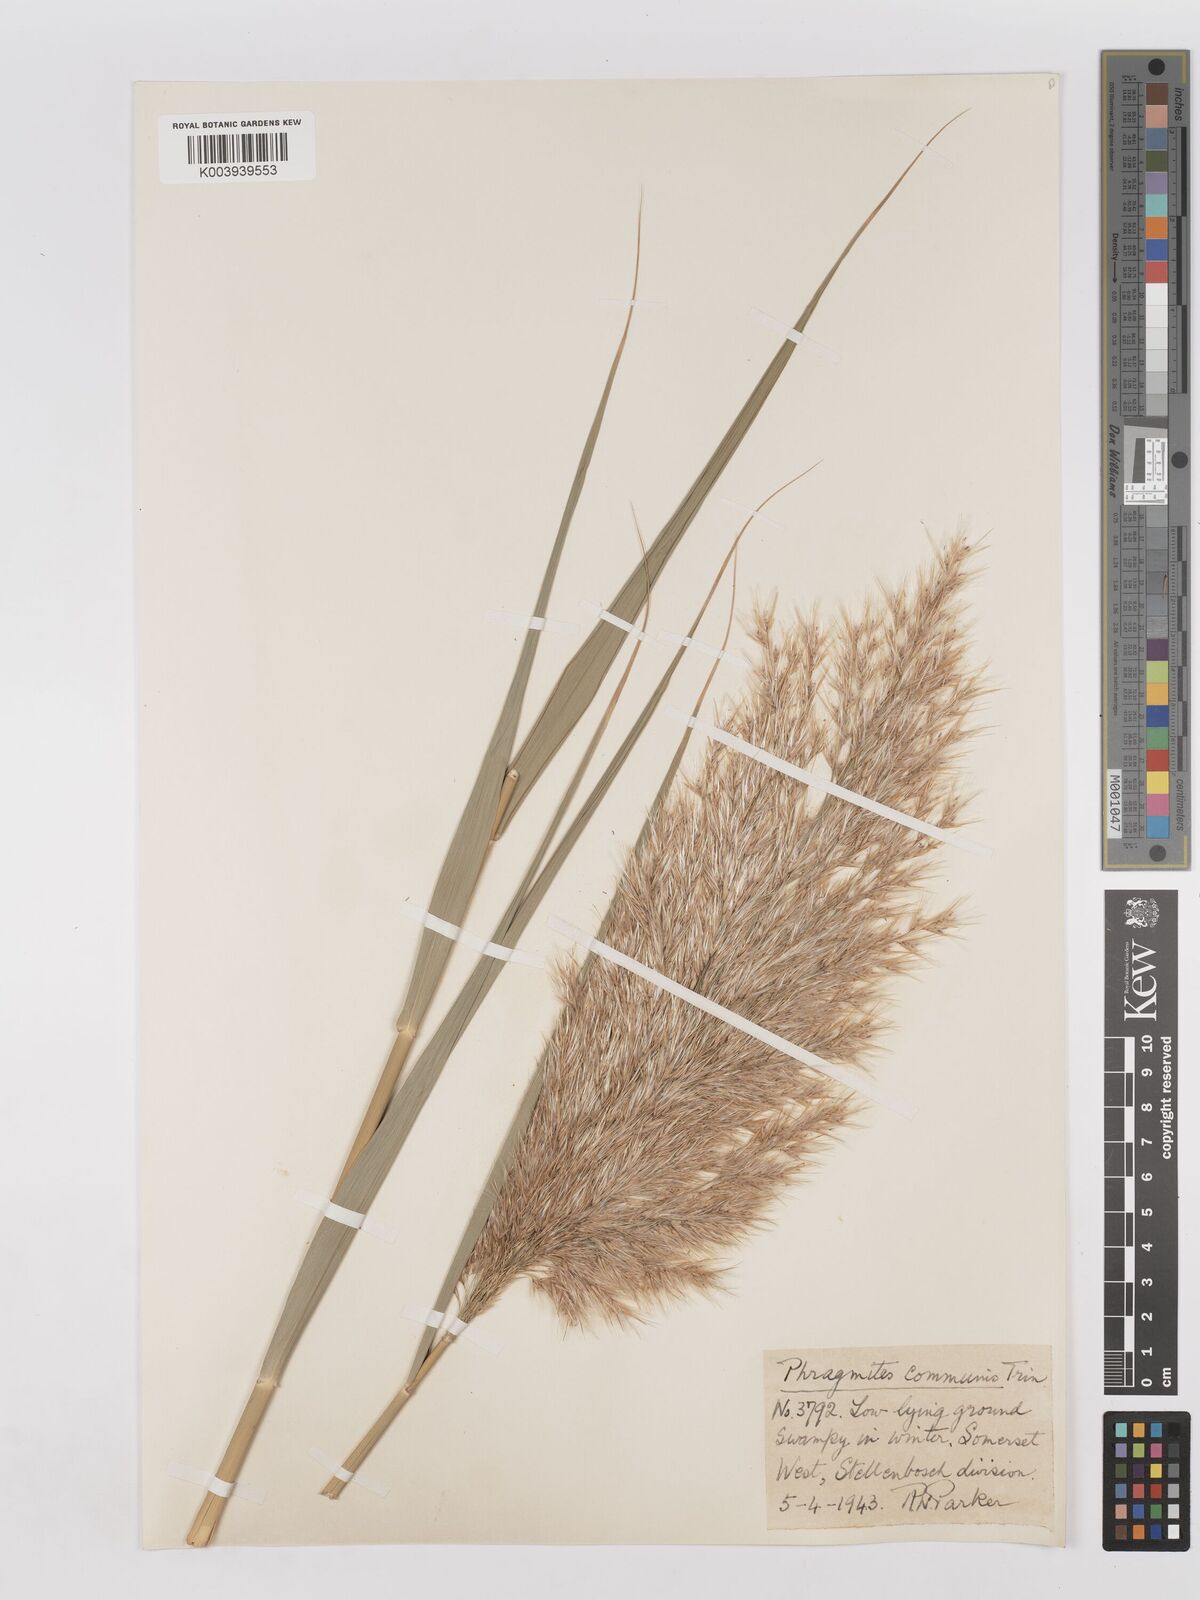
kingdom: Plantae
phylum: Tracheophyta
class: Liliopsida
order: Poales
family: Poaceae
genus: Phragmites
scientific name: Phragmites australis
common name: Common reed
